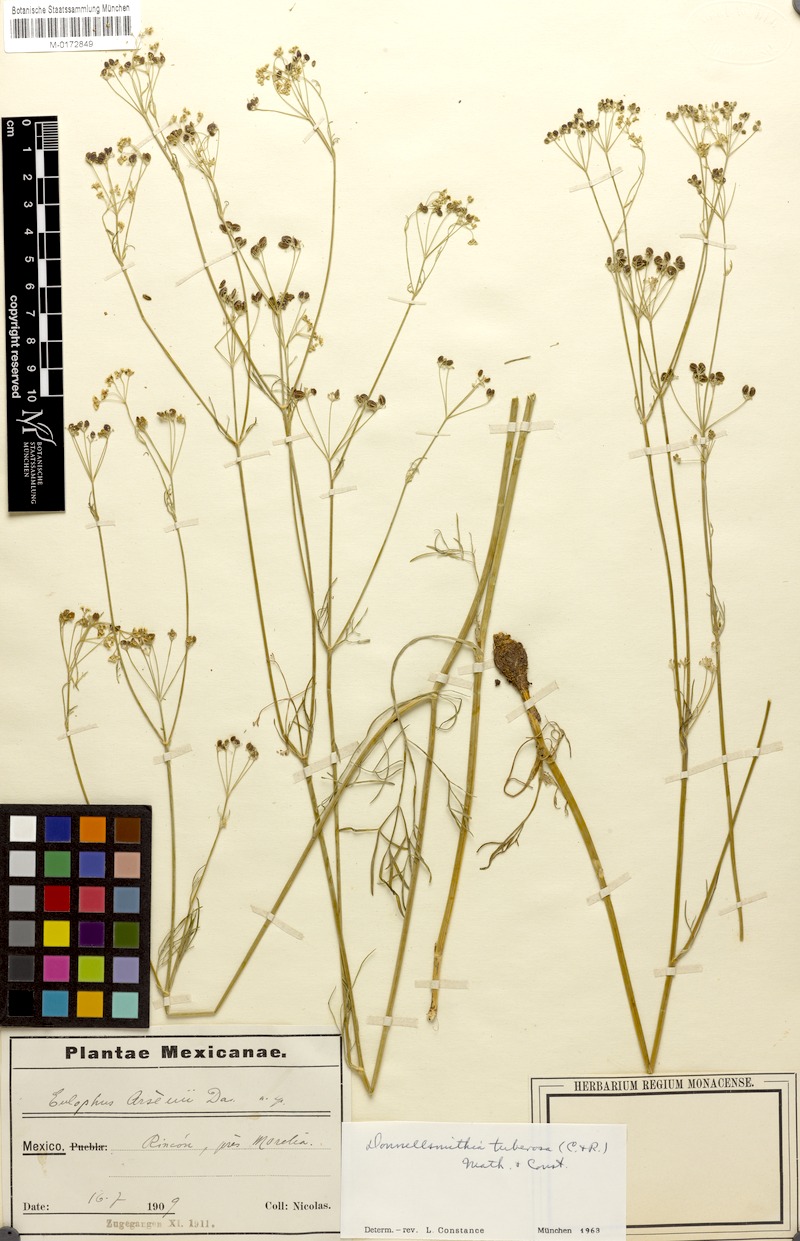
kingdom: Plantae
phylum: Tracheophyta
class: Magnoliopsida
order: Apiales
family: Apiaceae
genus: Donnellsmithia
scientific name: Donnellsmithia tuberosa
